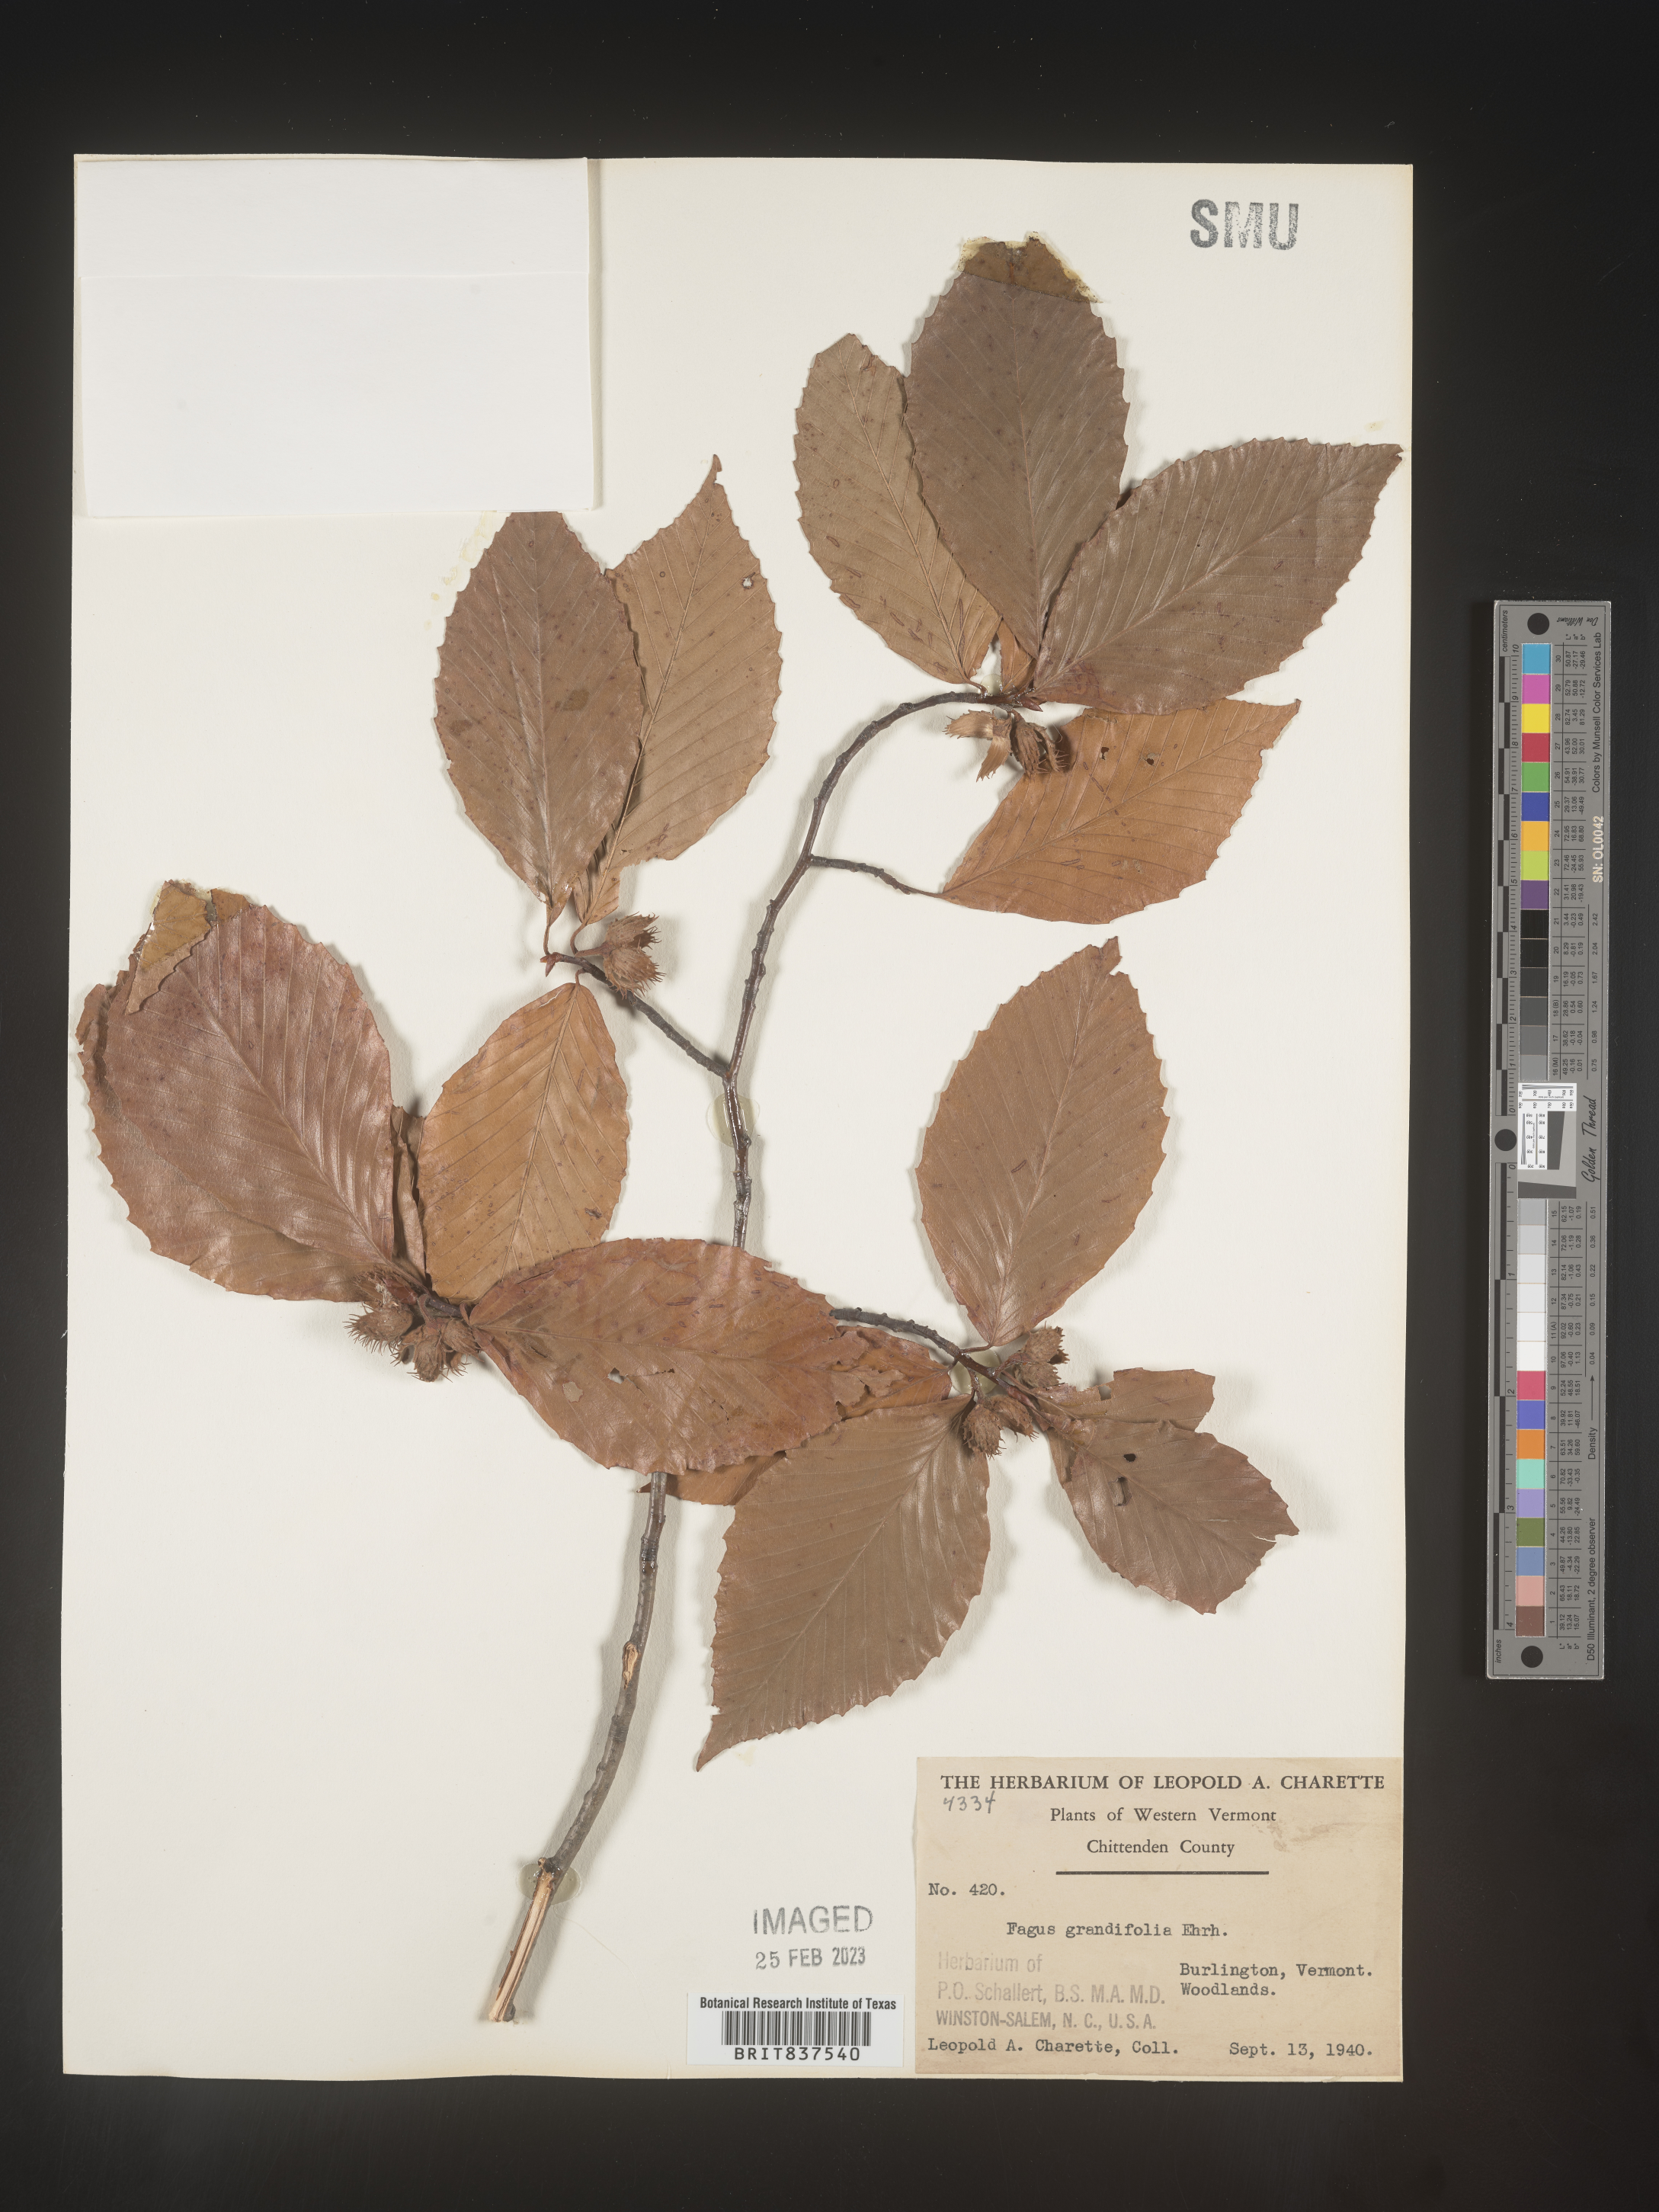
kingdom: Plantae
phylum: Tracheophyta
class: Magnoliopsida
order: Fagales
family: Fagaceae
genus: Fagus
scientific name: Fagus grandifolia
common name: American beech
